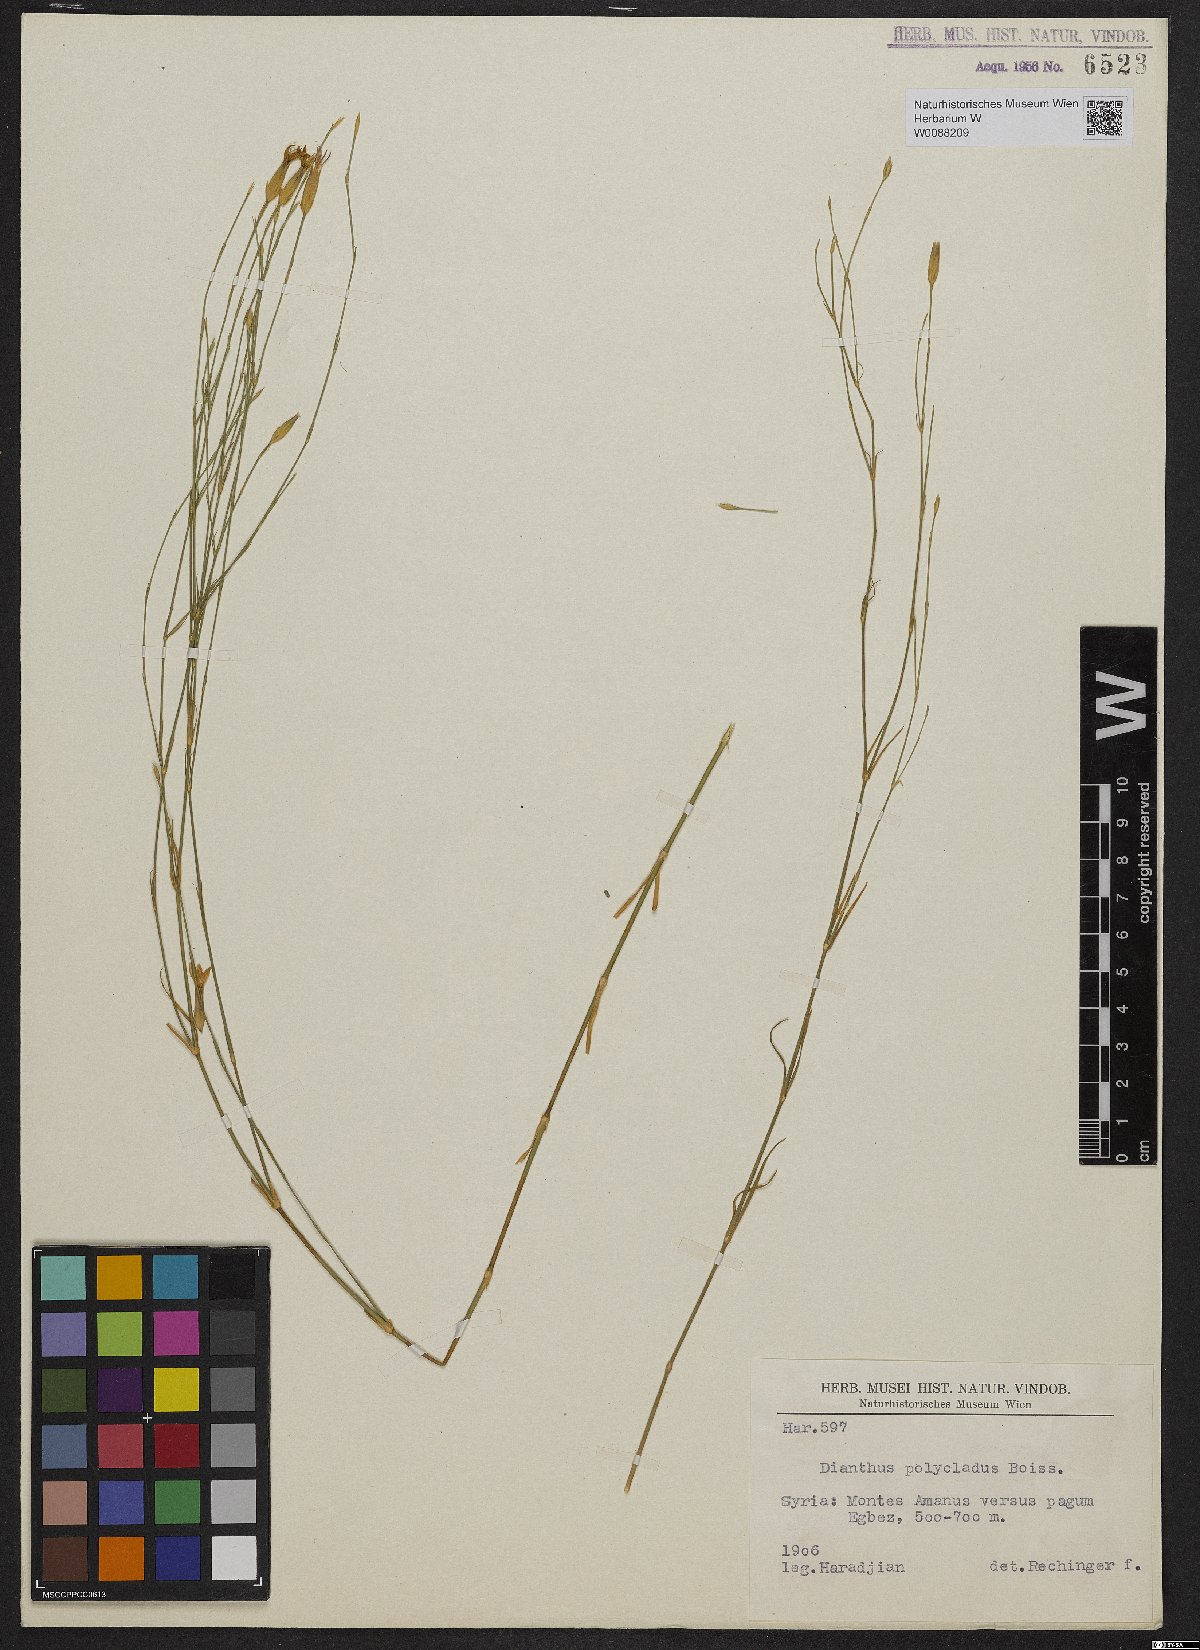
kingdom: Plantae
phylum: Tracheophyta
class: Magnoliopsida
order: Caryophyllales
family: Caryophyllaceae
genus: Dianthus
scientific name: Dianthus strictus
